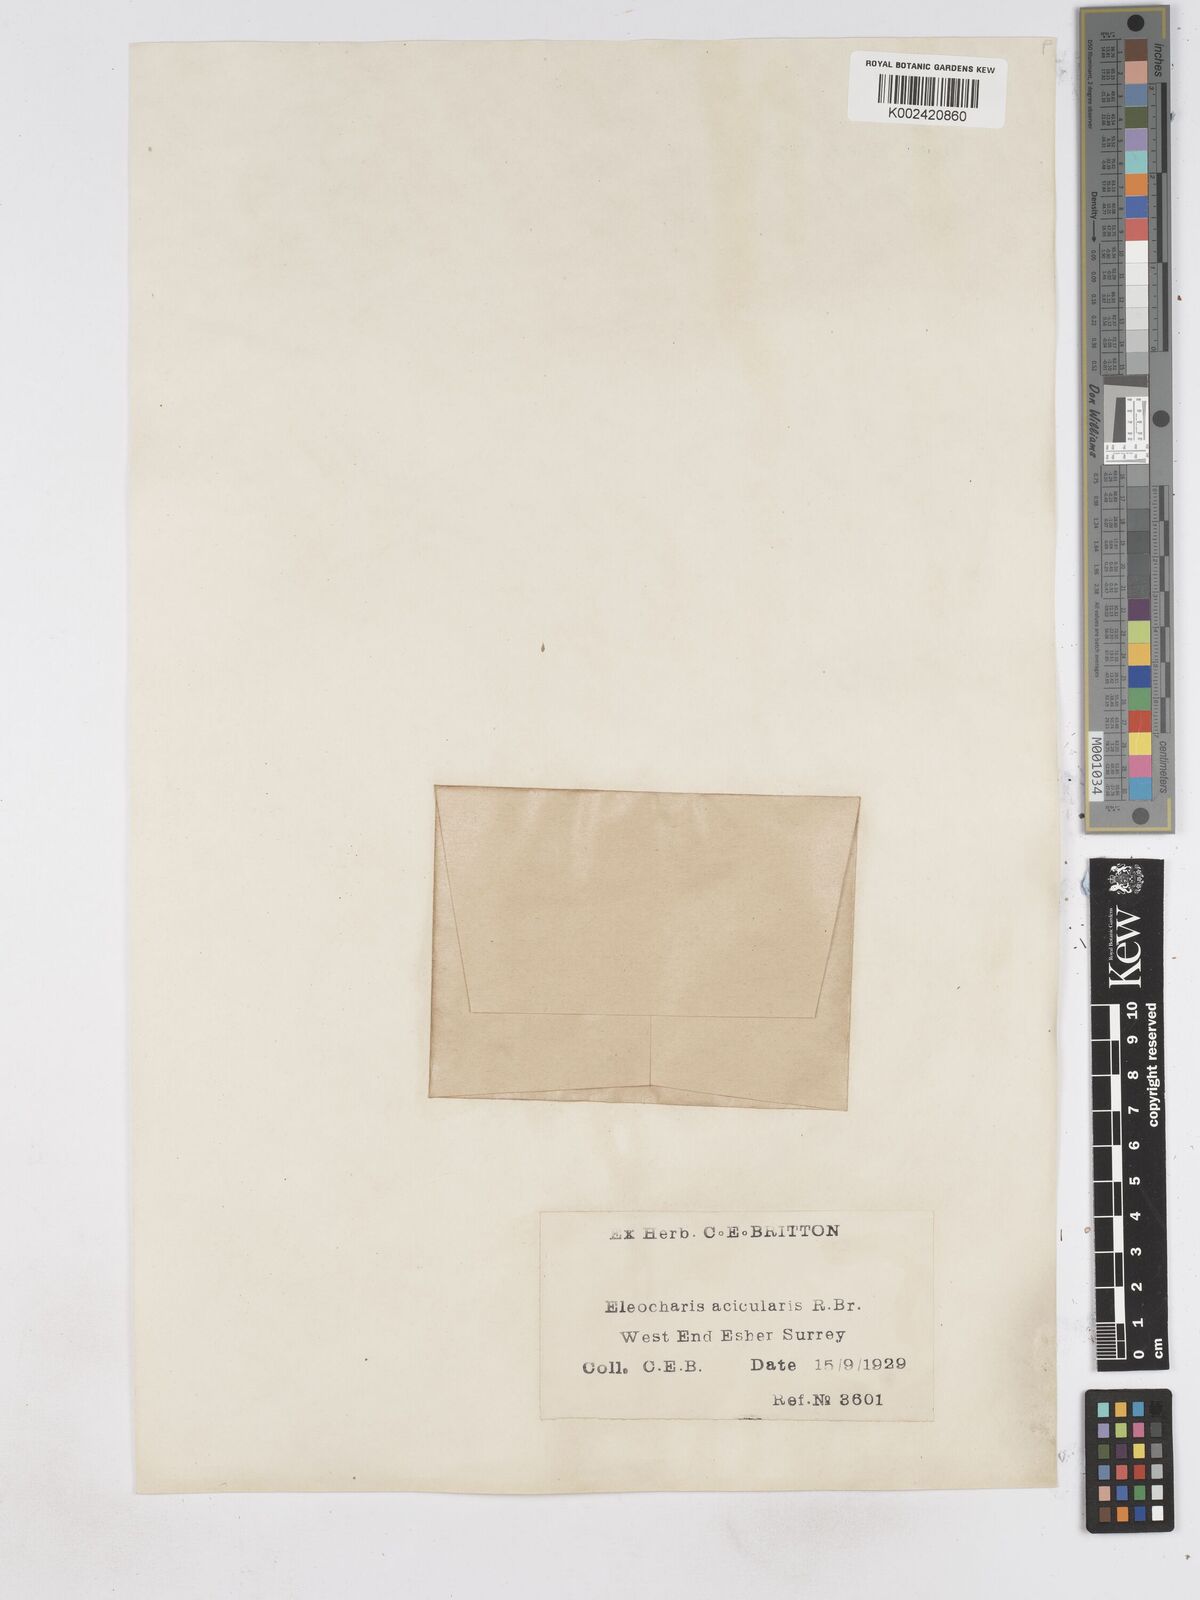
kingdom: Plantae
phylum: Tracheophyta
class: Liliopsida
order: Poales
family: Cyperaceae
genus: Eleocharis
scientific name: Eleocharis acicularis
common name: Needle spike-rush
